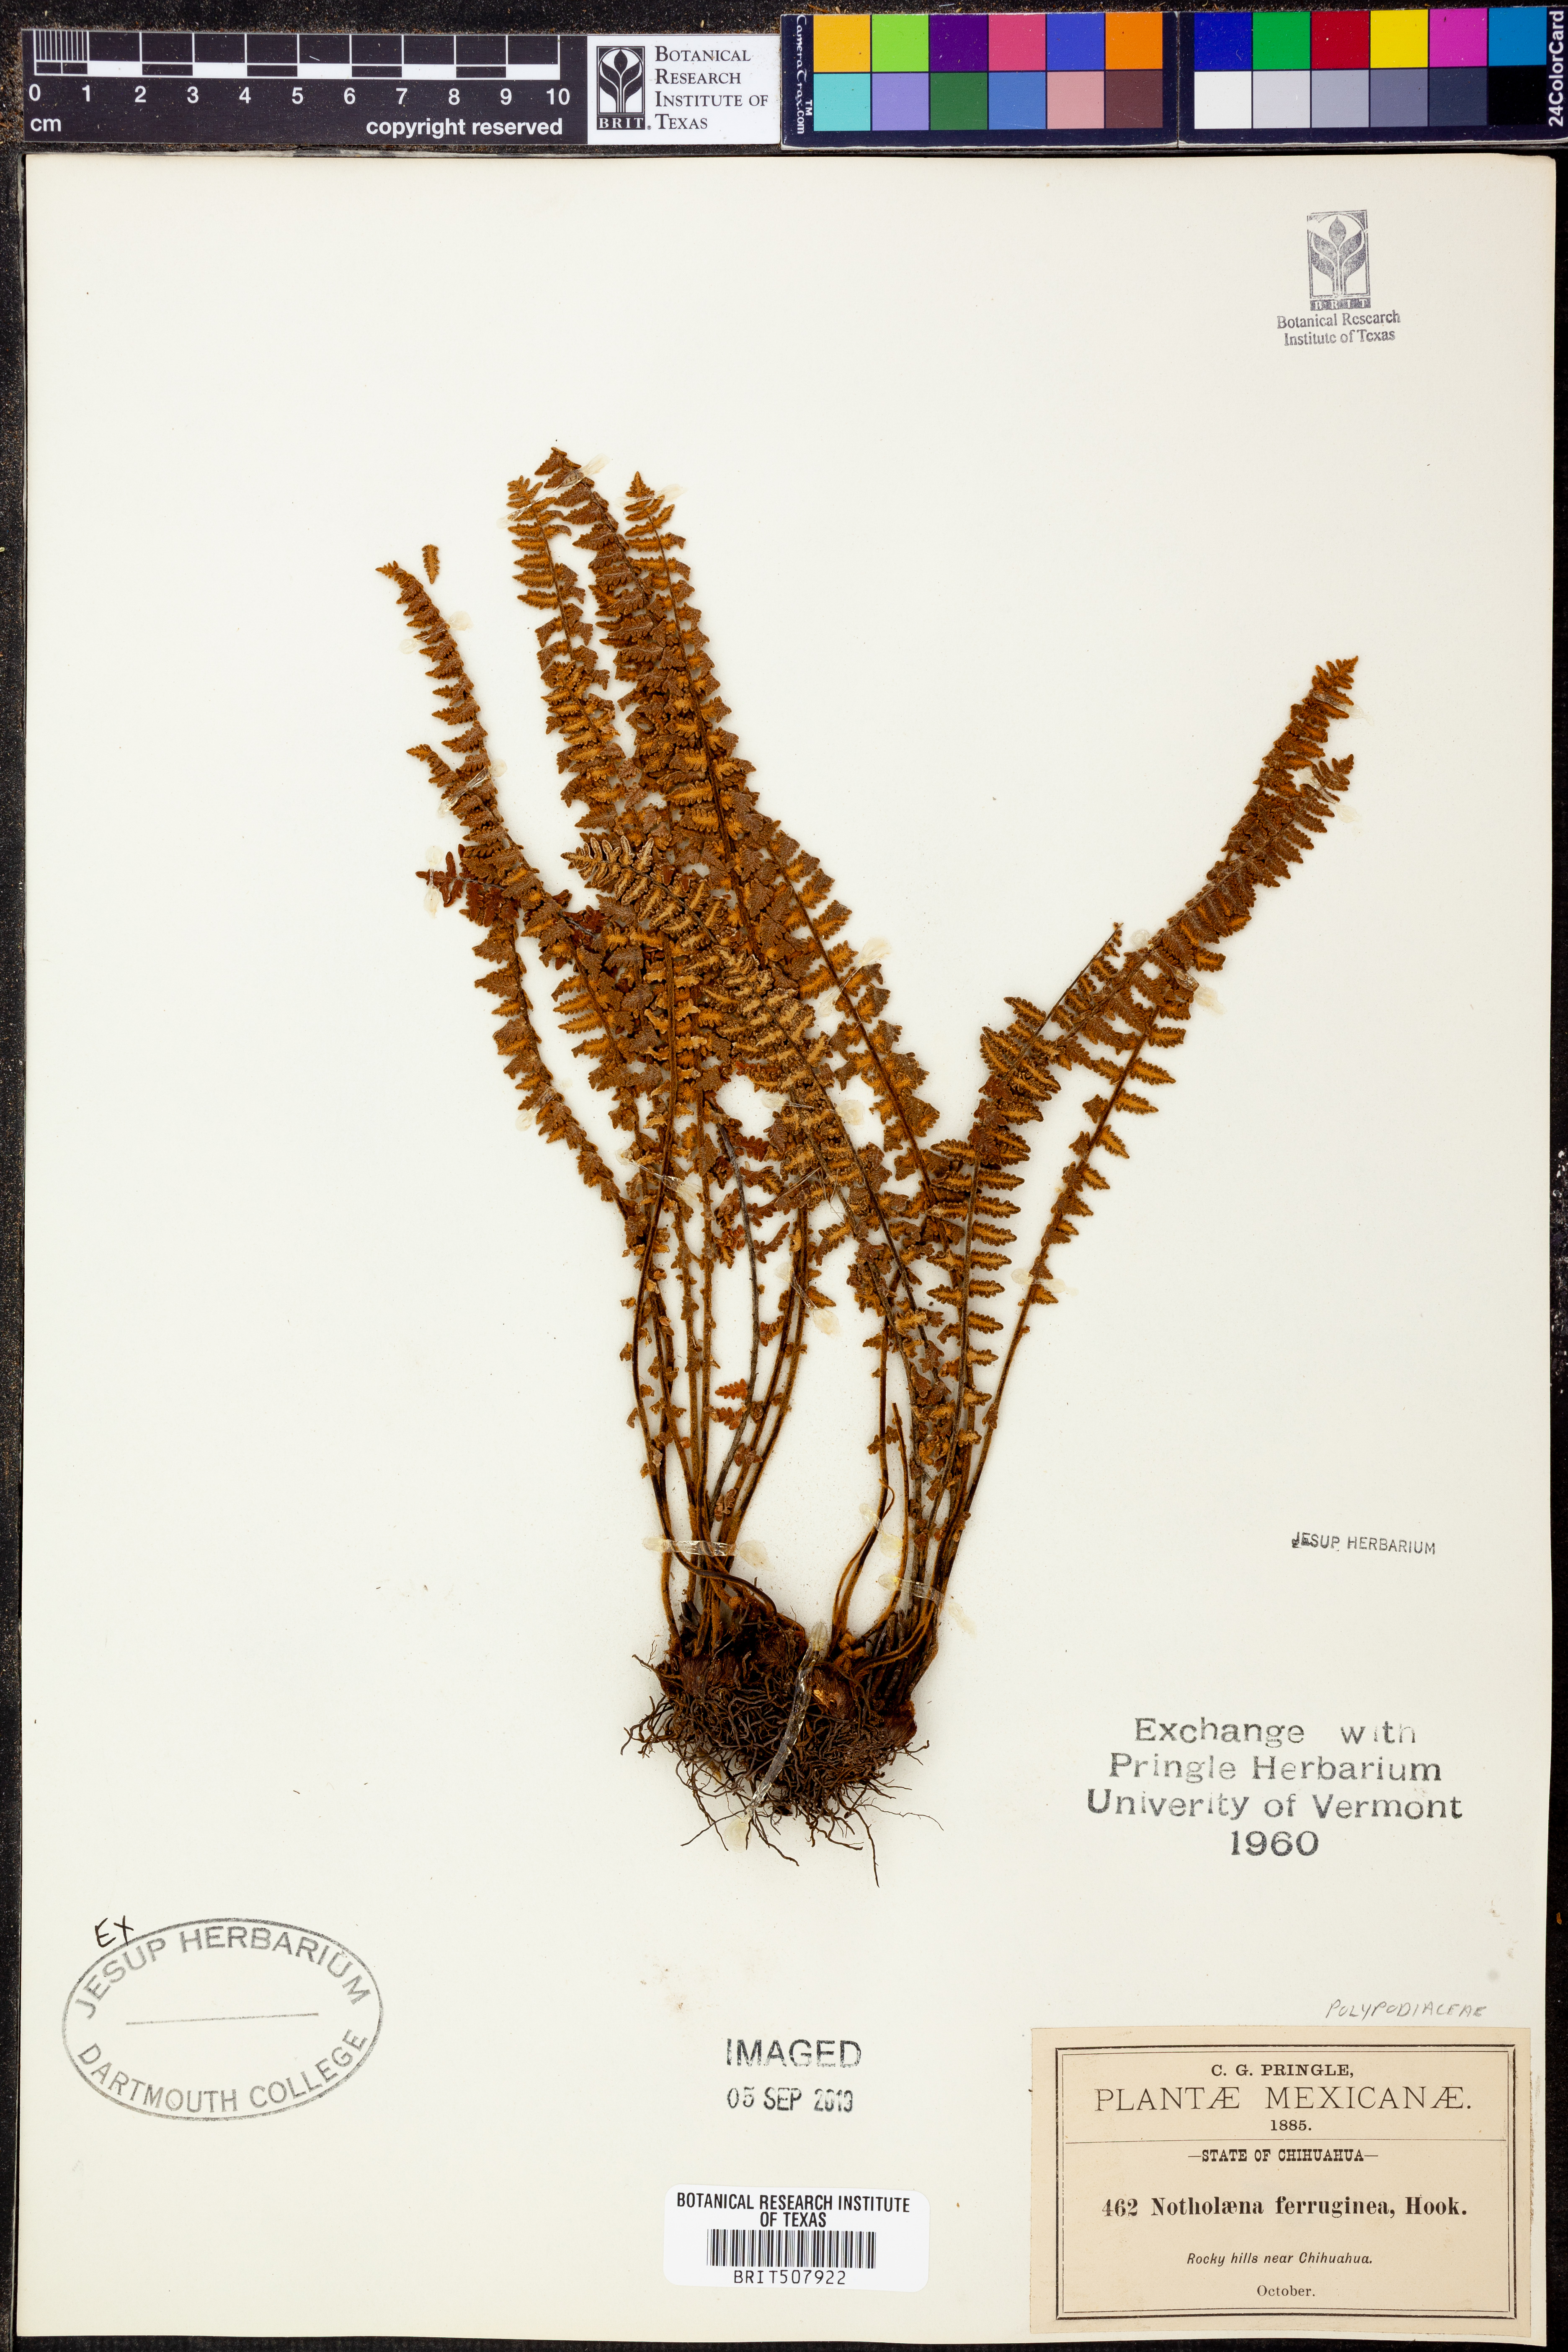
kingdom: Plantae
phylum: Tracheophyta
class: Polypodiopsida
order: Polypodiales
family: Pteridaceae
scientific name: Pteridaceae
